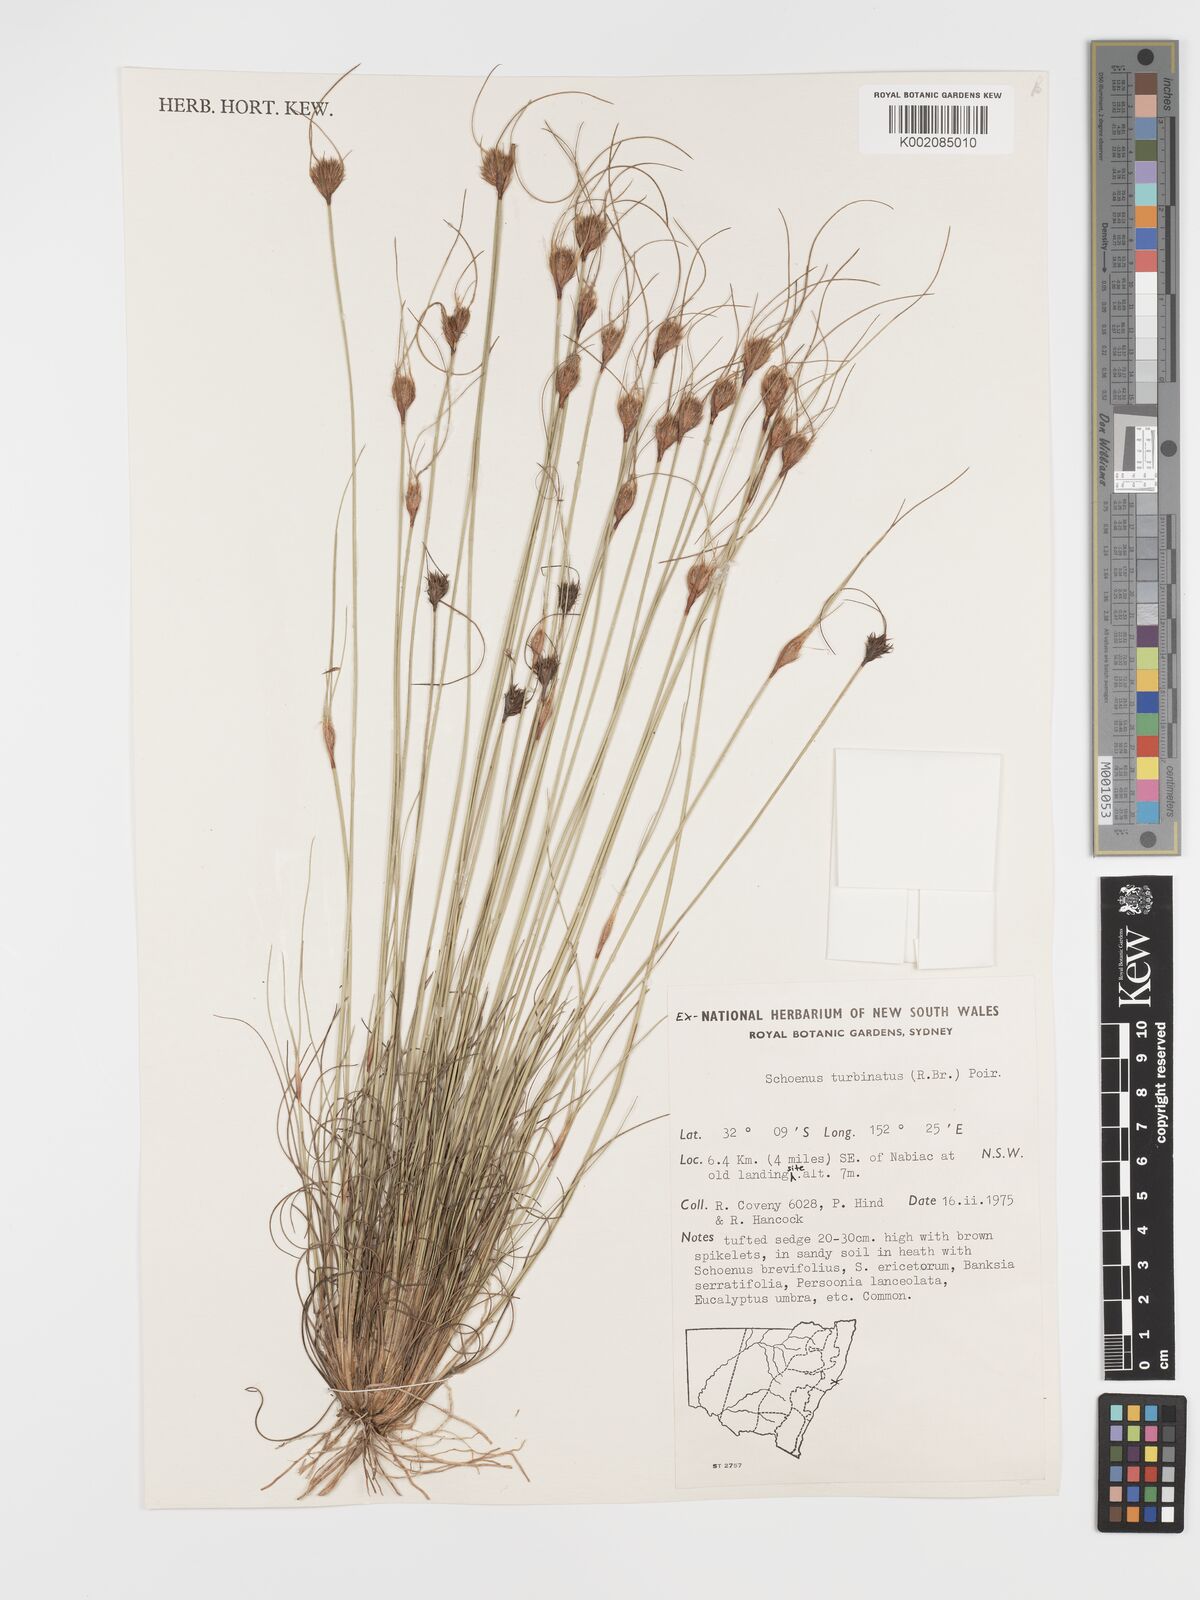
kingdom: Plantae
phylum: Tracheophyta
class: Liliopsida
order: Poales
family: Cyperaceae
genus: Schoenus
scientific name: Schoenus turbinatus
